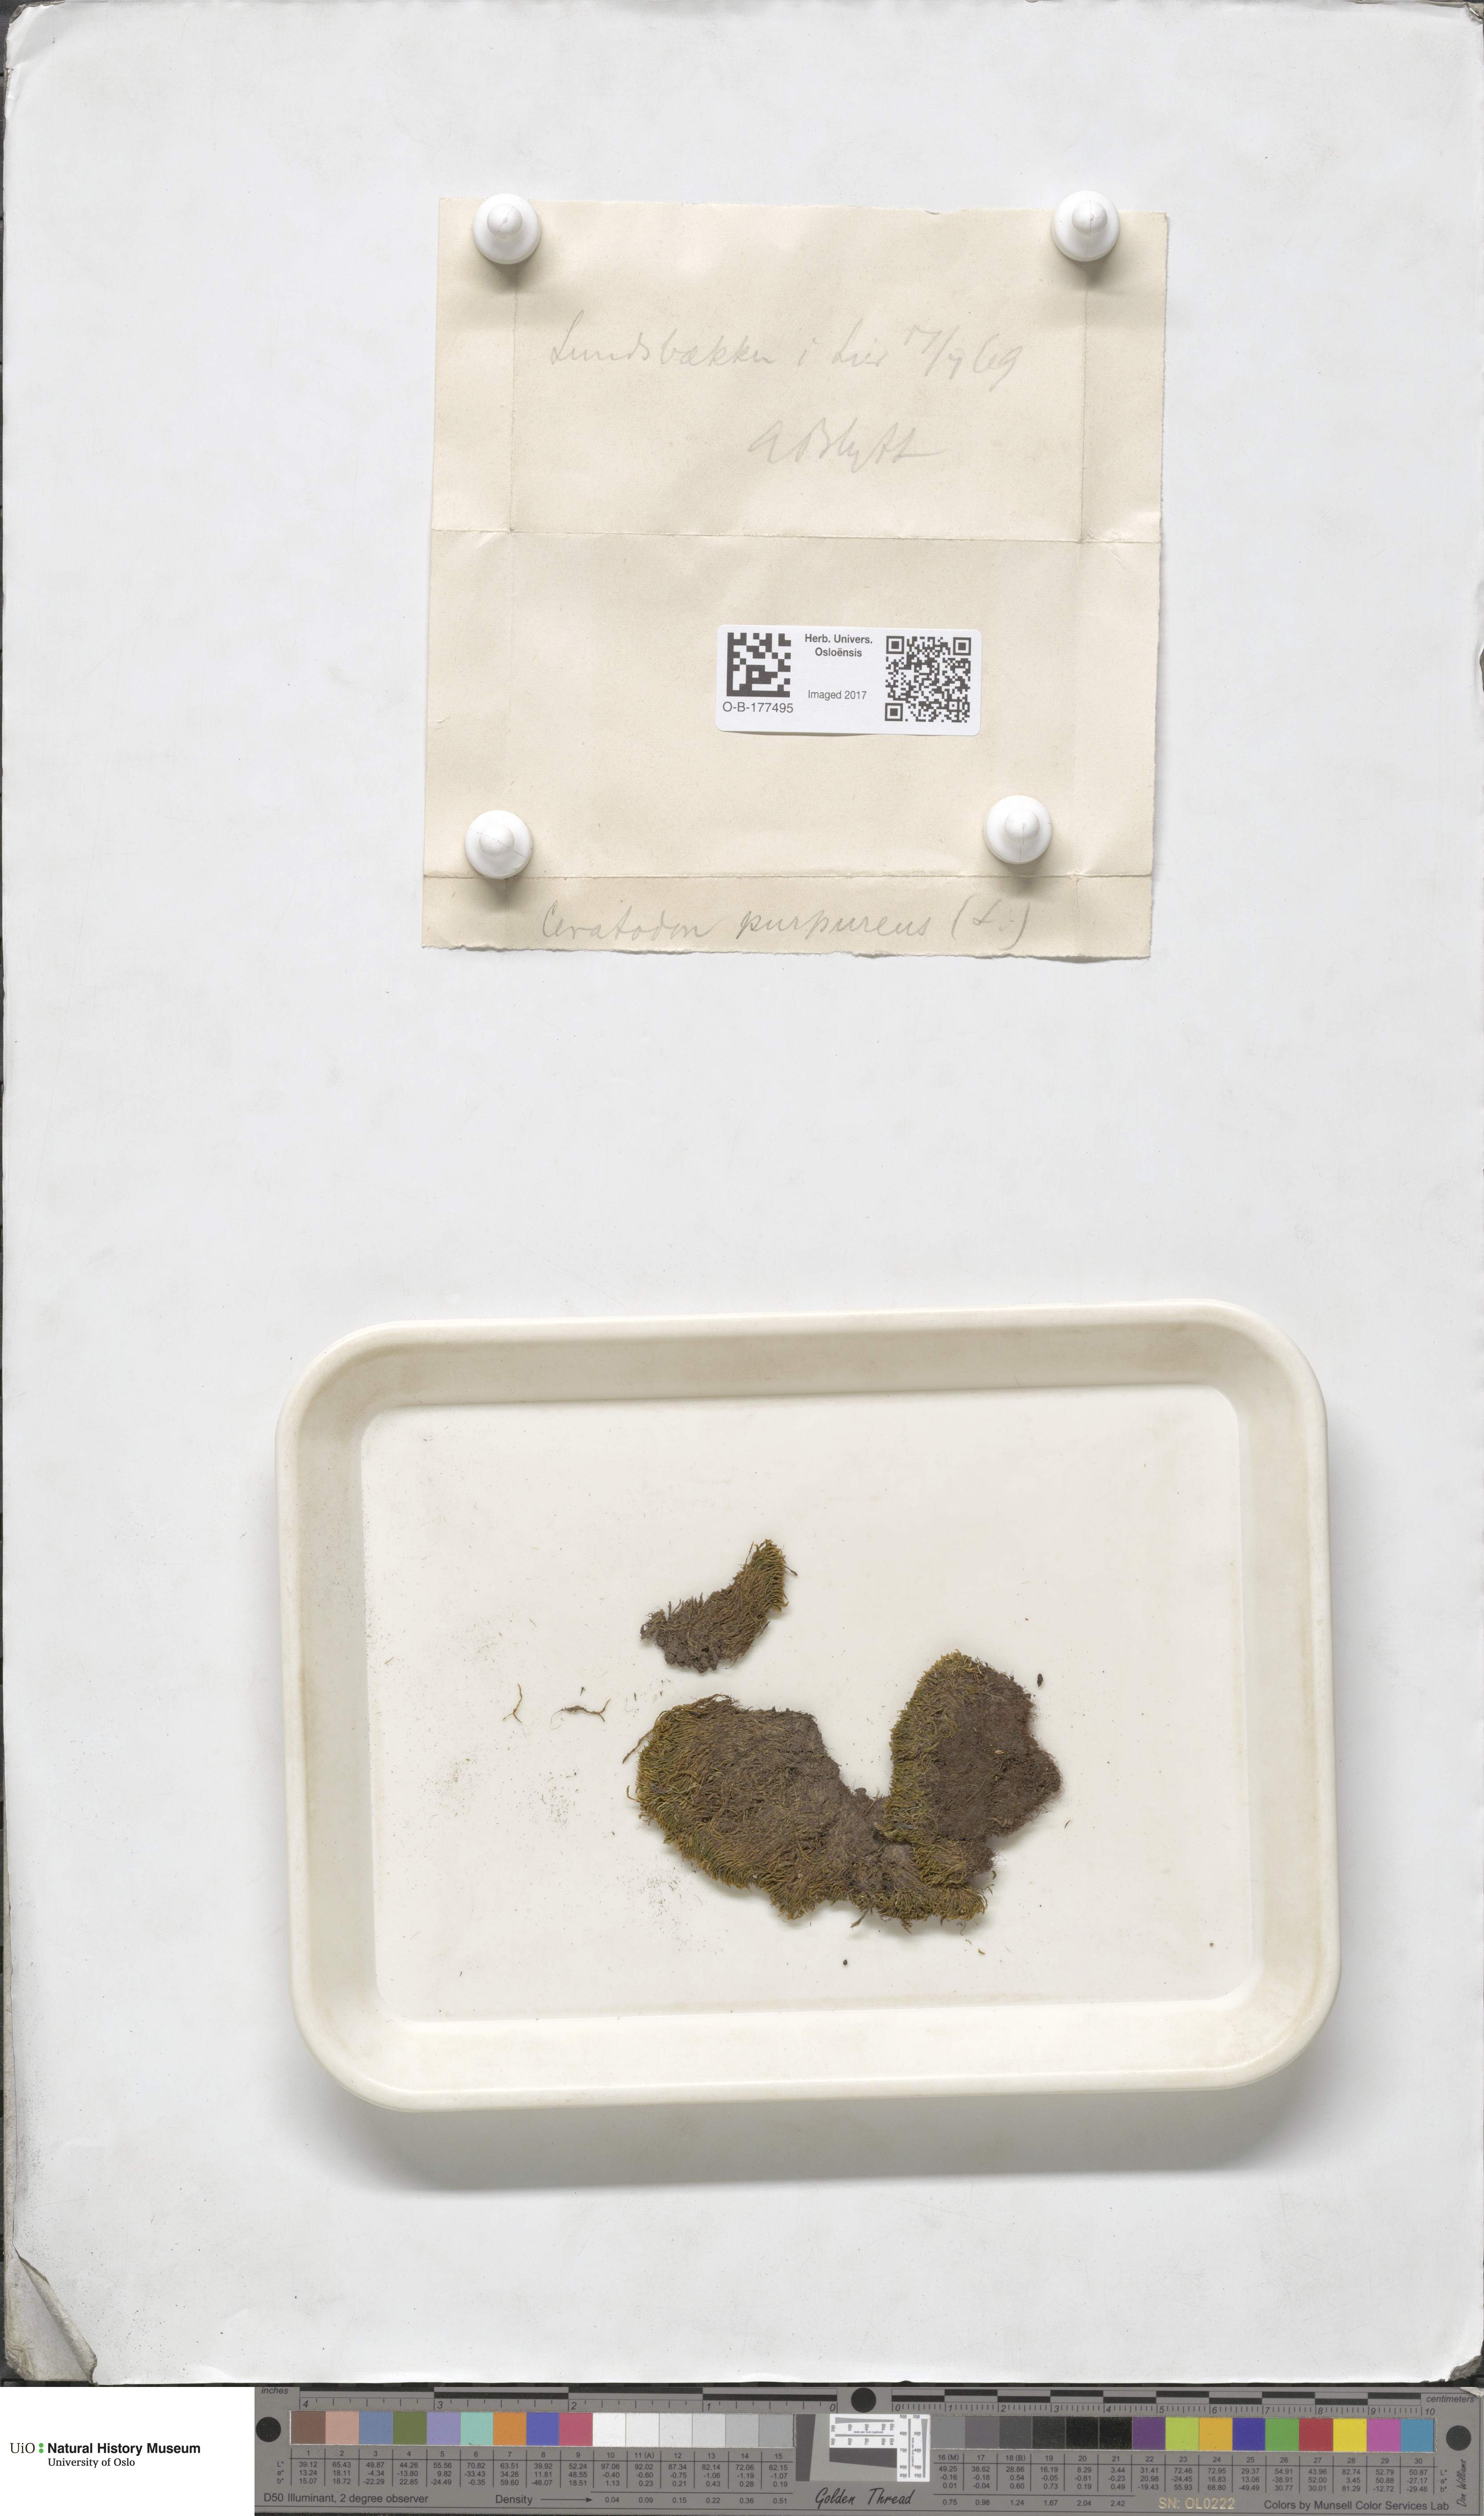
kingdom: Plantae
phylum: Bryophyta
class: Bryopsida
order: Dicranales
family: Ditrichaceae
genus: Ceratodon
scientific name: Ceratodon purpureus
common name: Redshank
